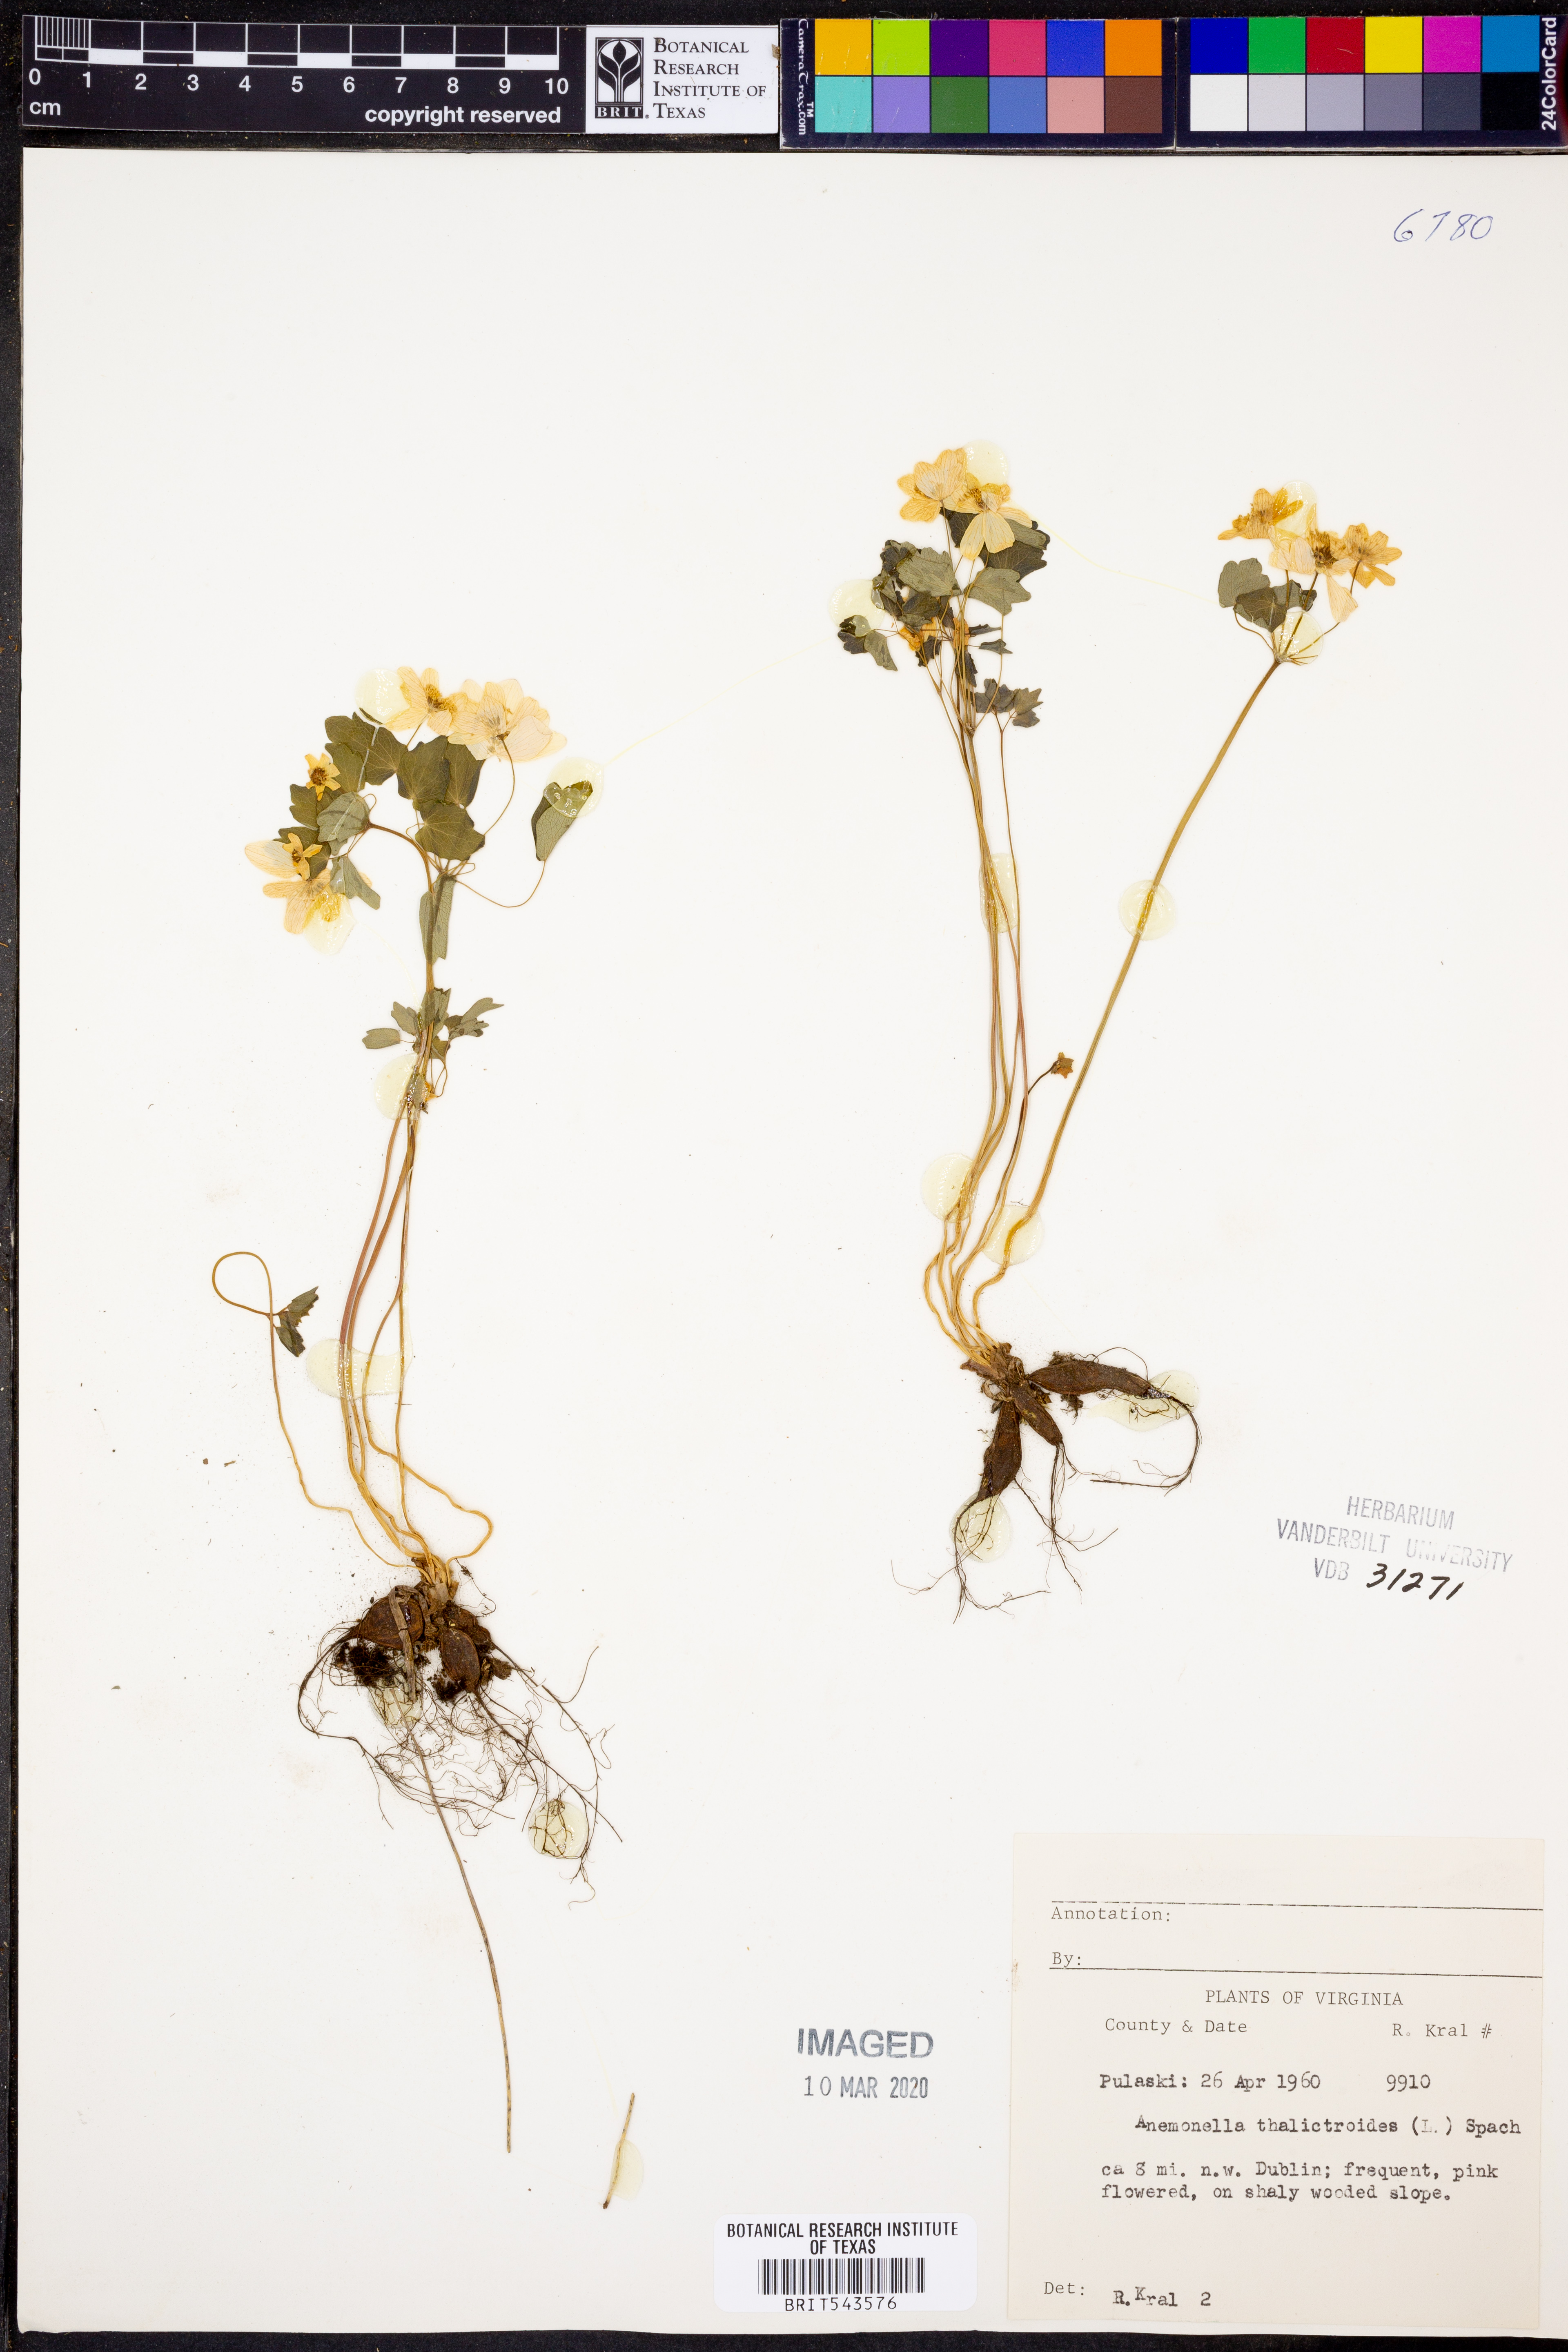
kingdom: Plantae
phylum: Tracheophyta
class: Magnoliopsida
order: Ranunculales
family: Ranunculaceae
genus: Thalictrum
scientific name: Thalictrum thalictroides
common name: Rue-anemone
